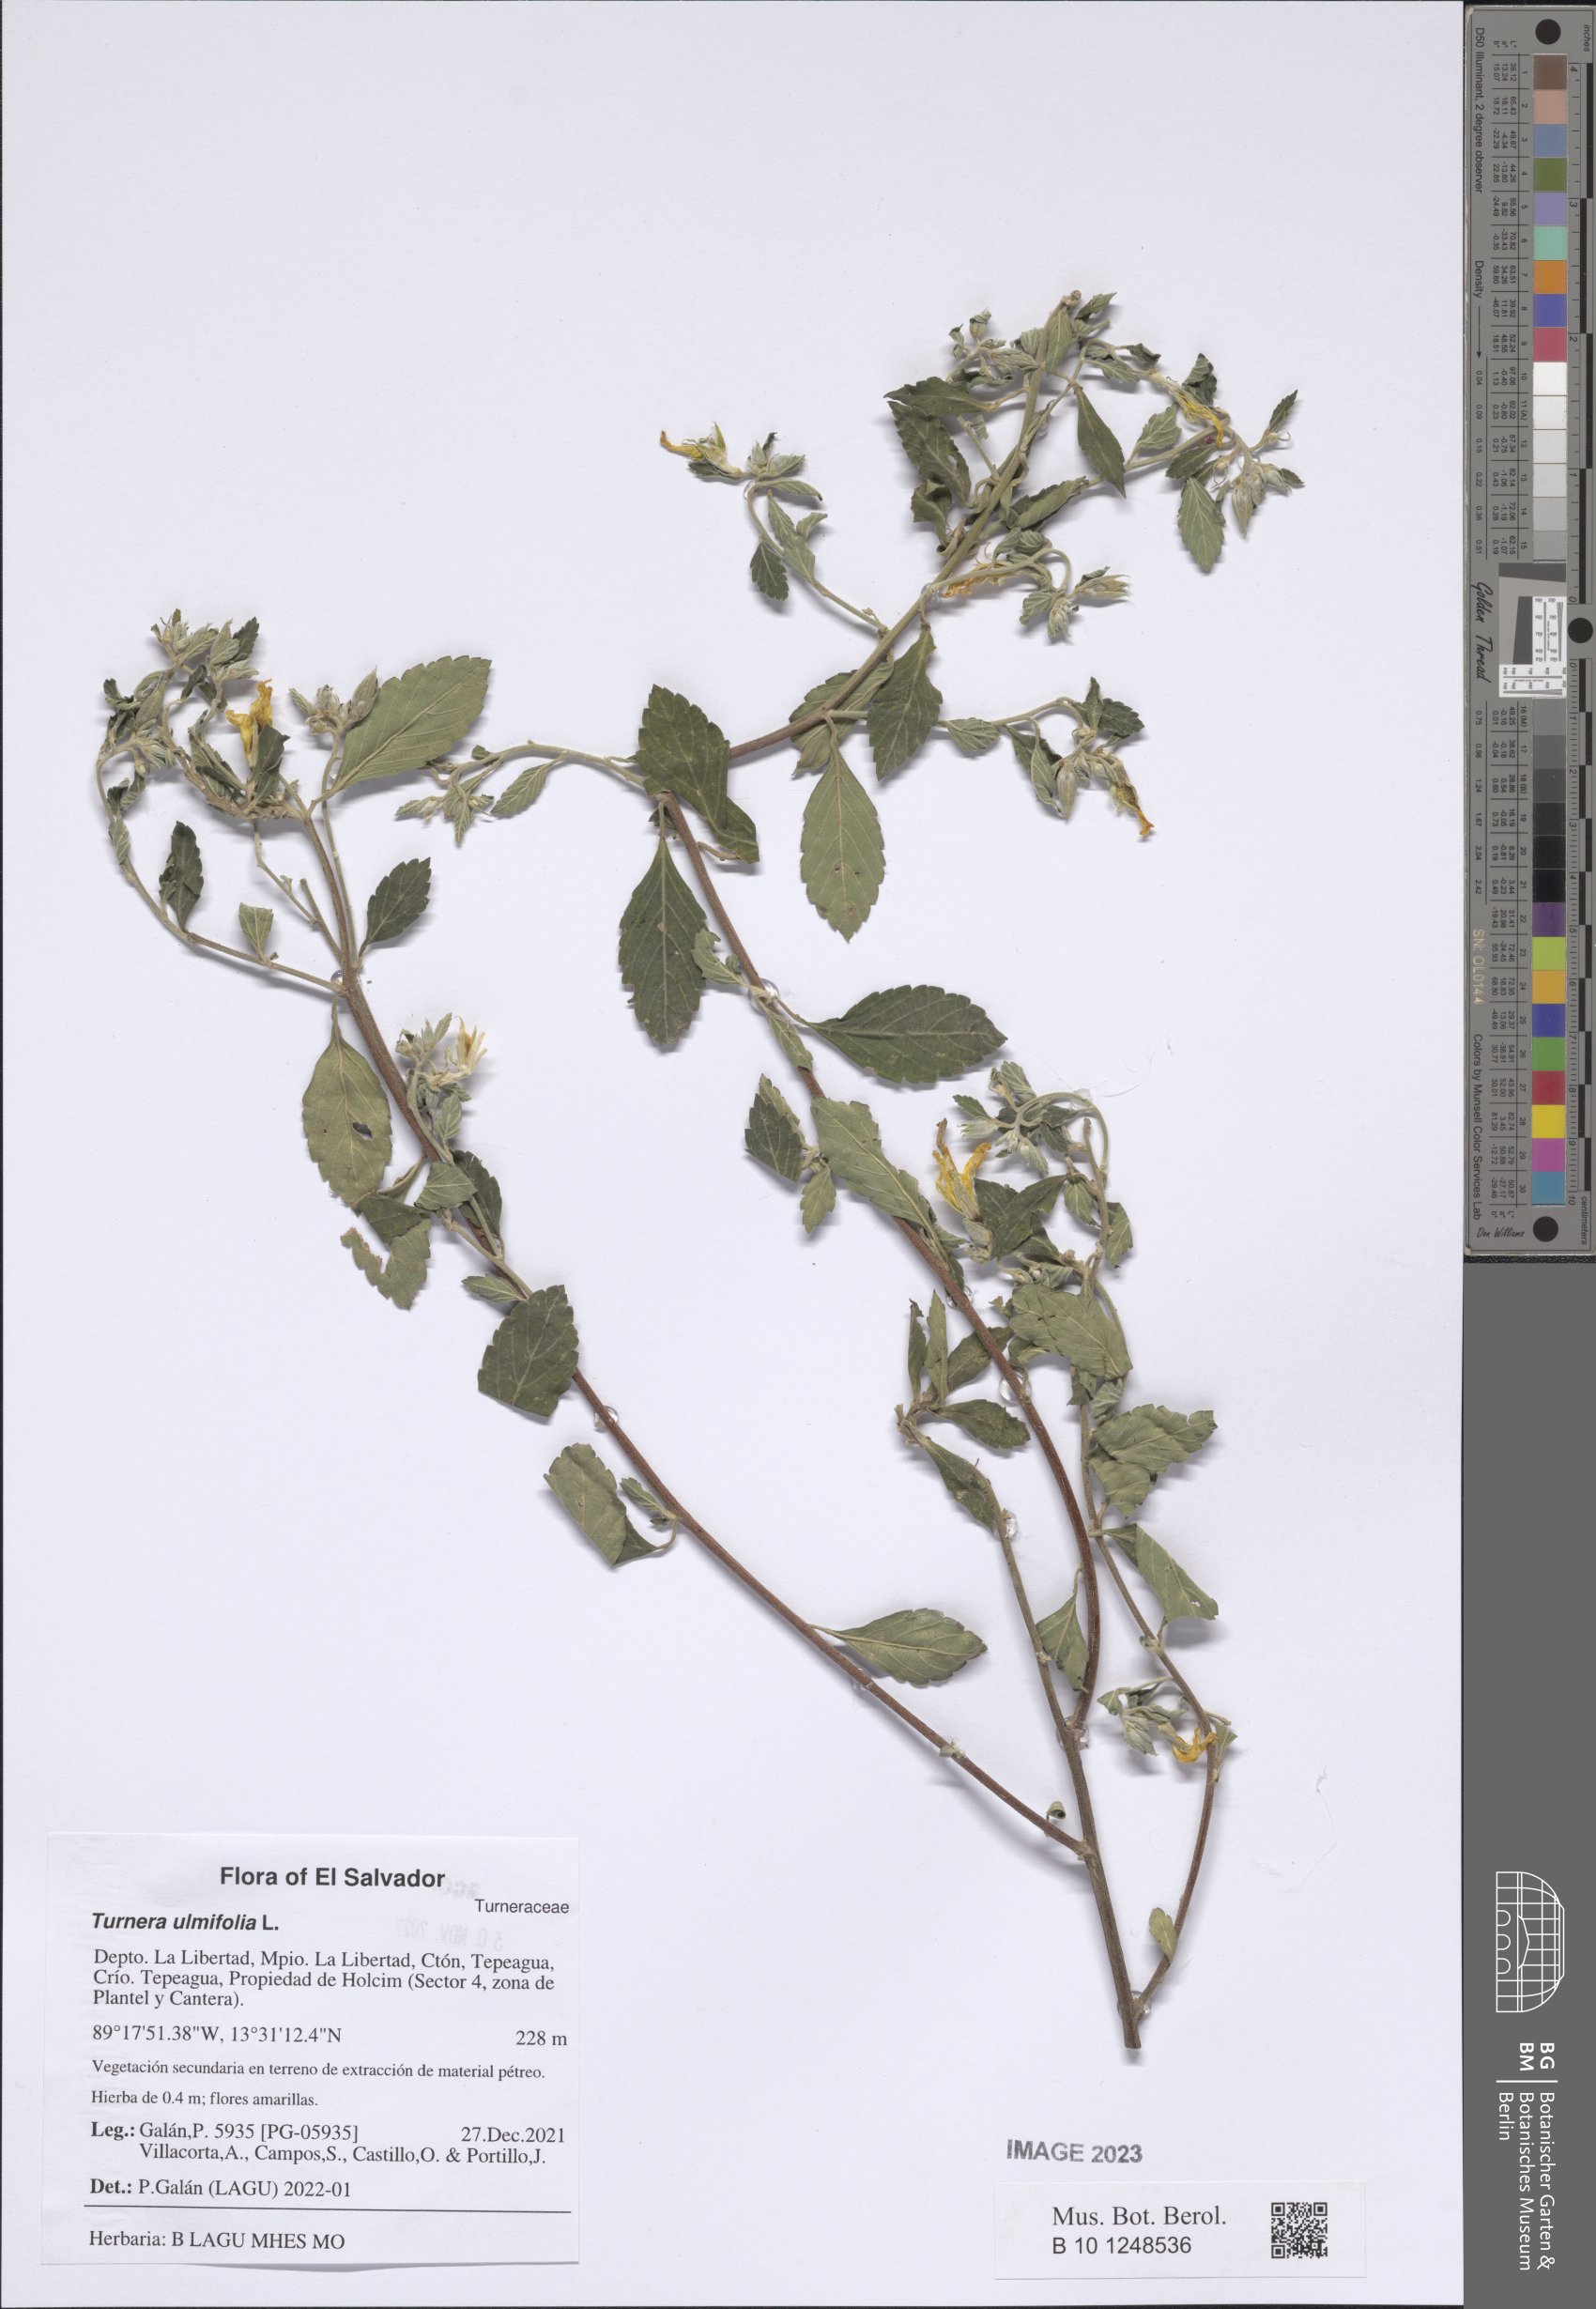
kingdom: Plantae
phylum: Tracheophyta
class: Magnoliopsida
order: Malpighiales
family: Turneraceae
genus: Turnera
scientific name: Turnera ulmifolia
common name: Ramgoat dashalong
